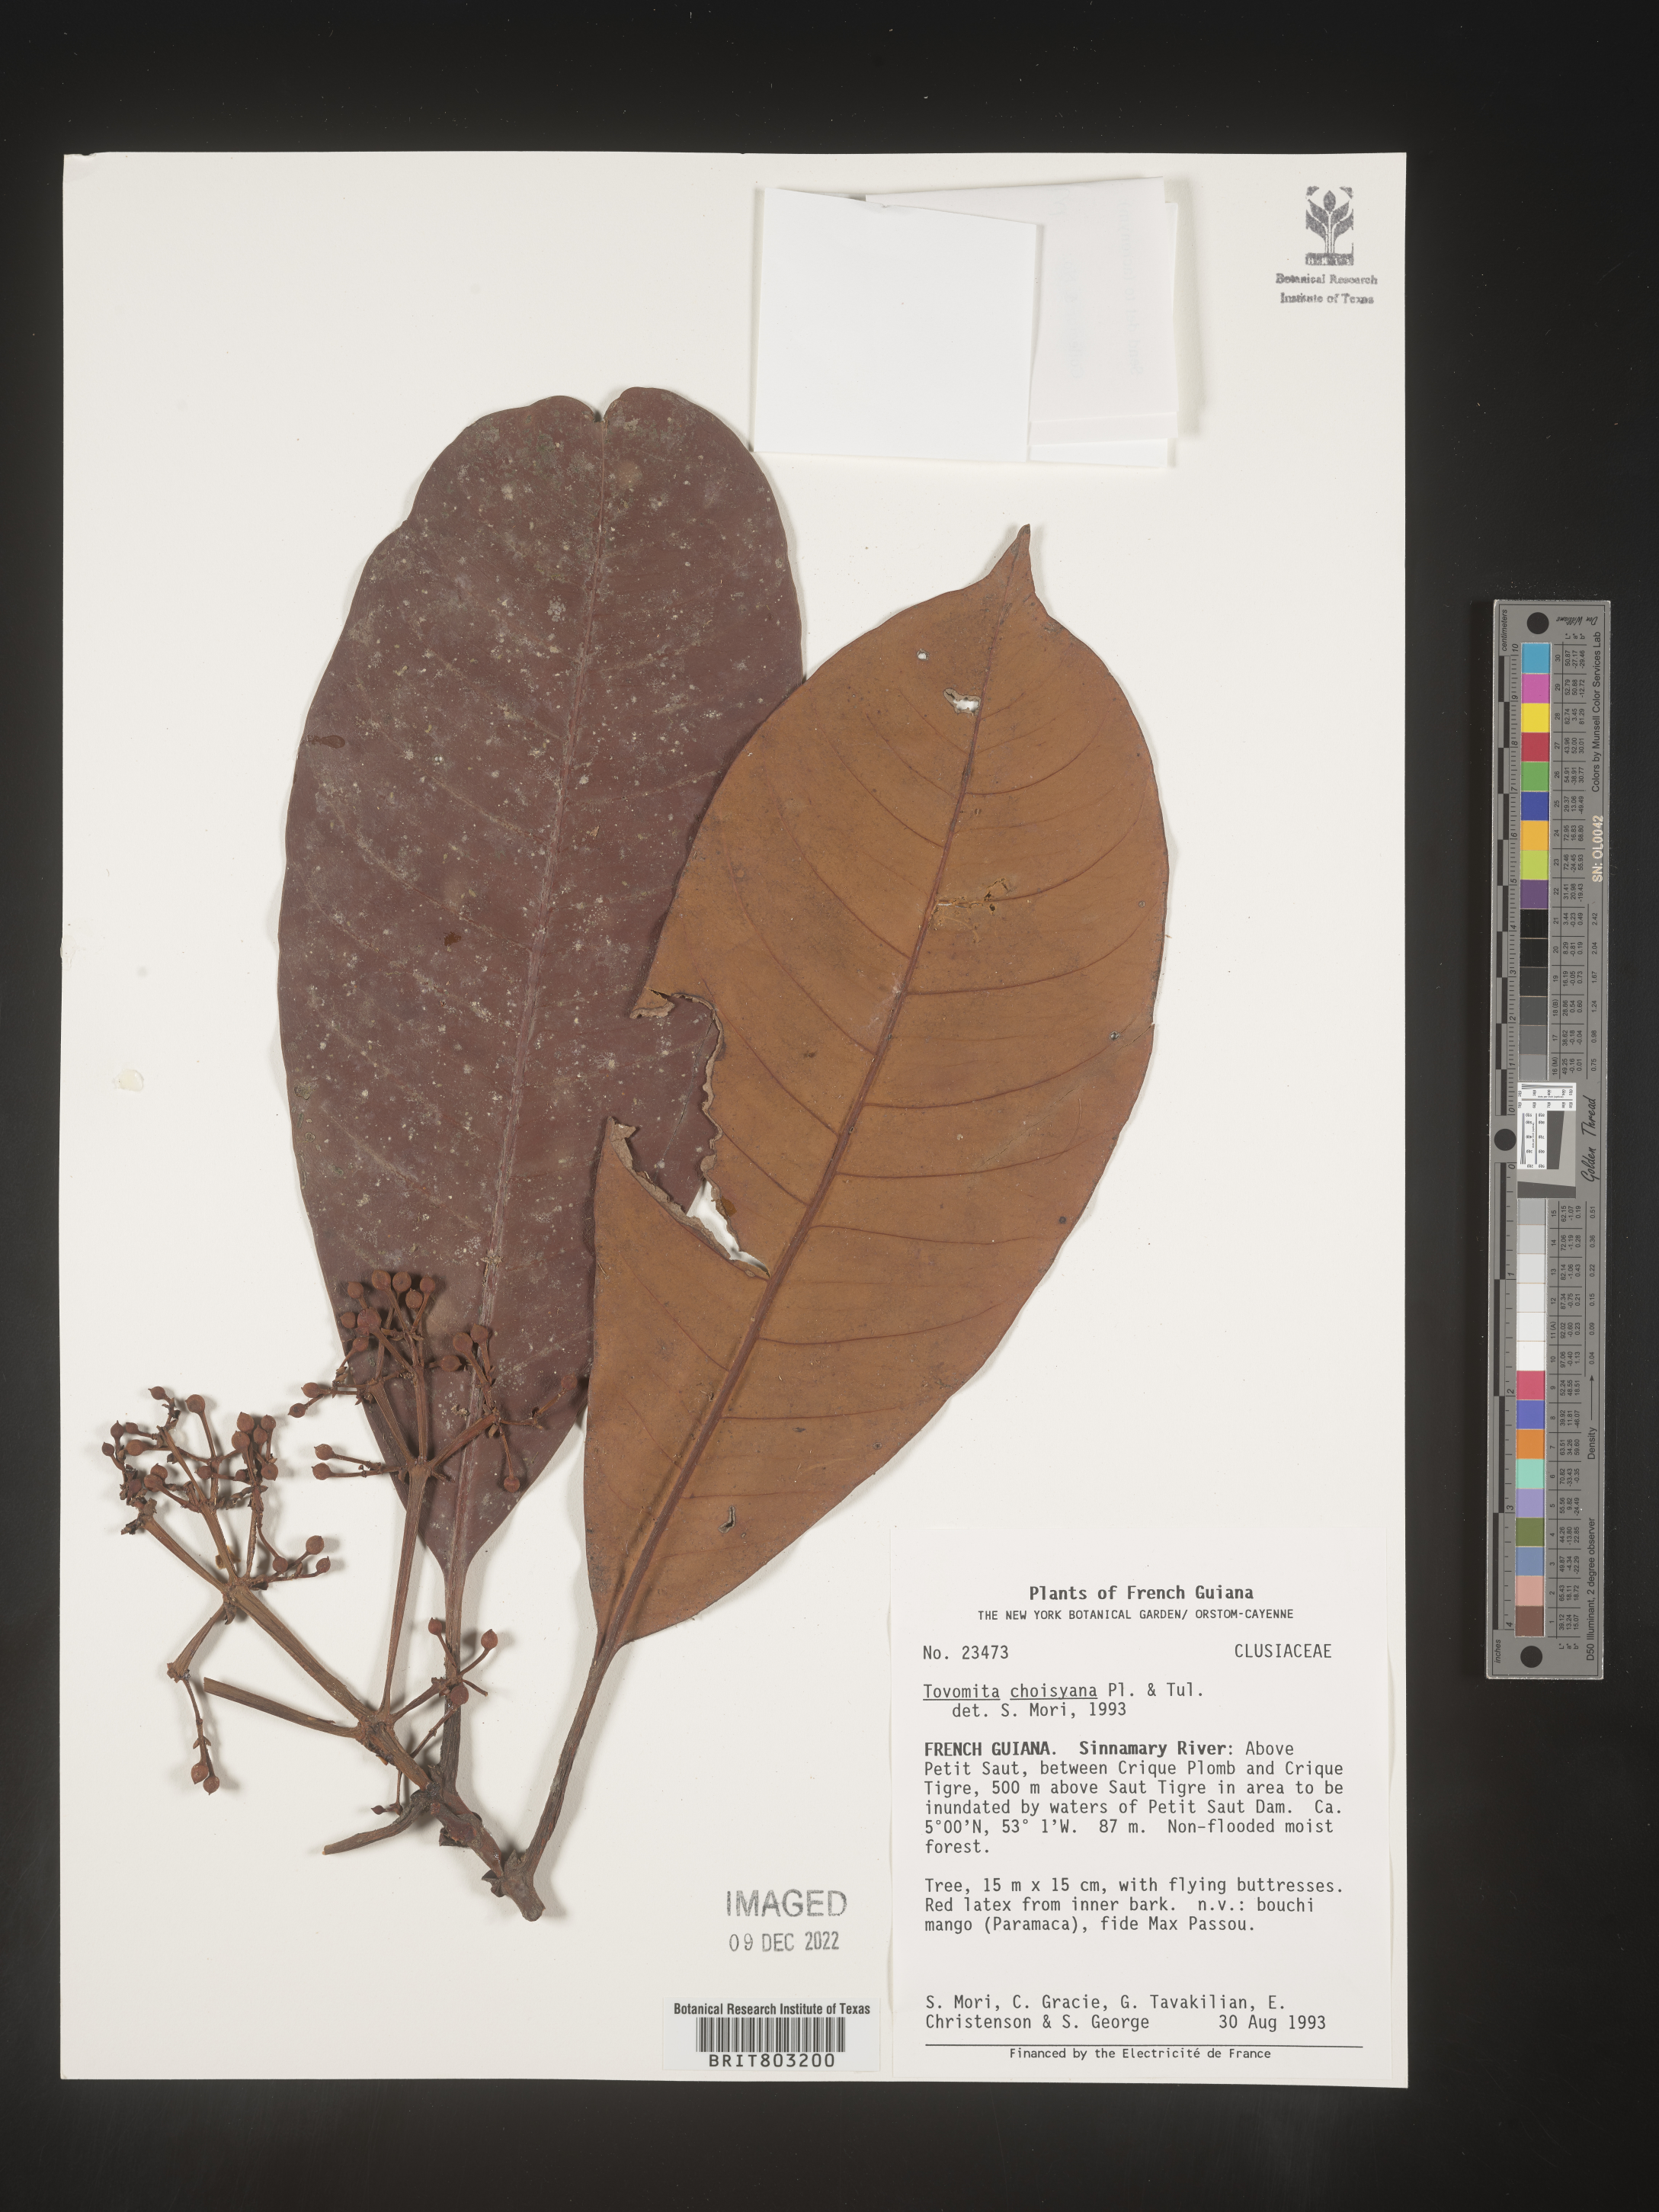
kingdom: Plantae
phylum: Tracheophyta
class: Magnoliopsida
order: Malpighiales
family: Clusiaceae
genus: Tovomita
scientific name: Tovomita
